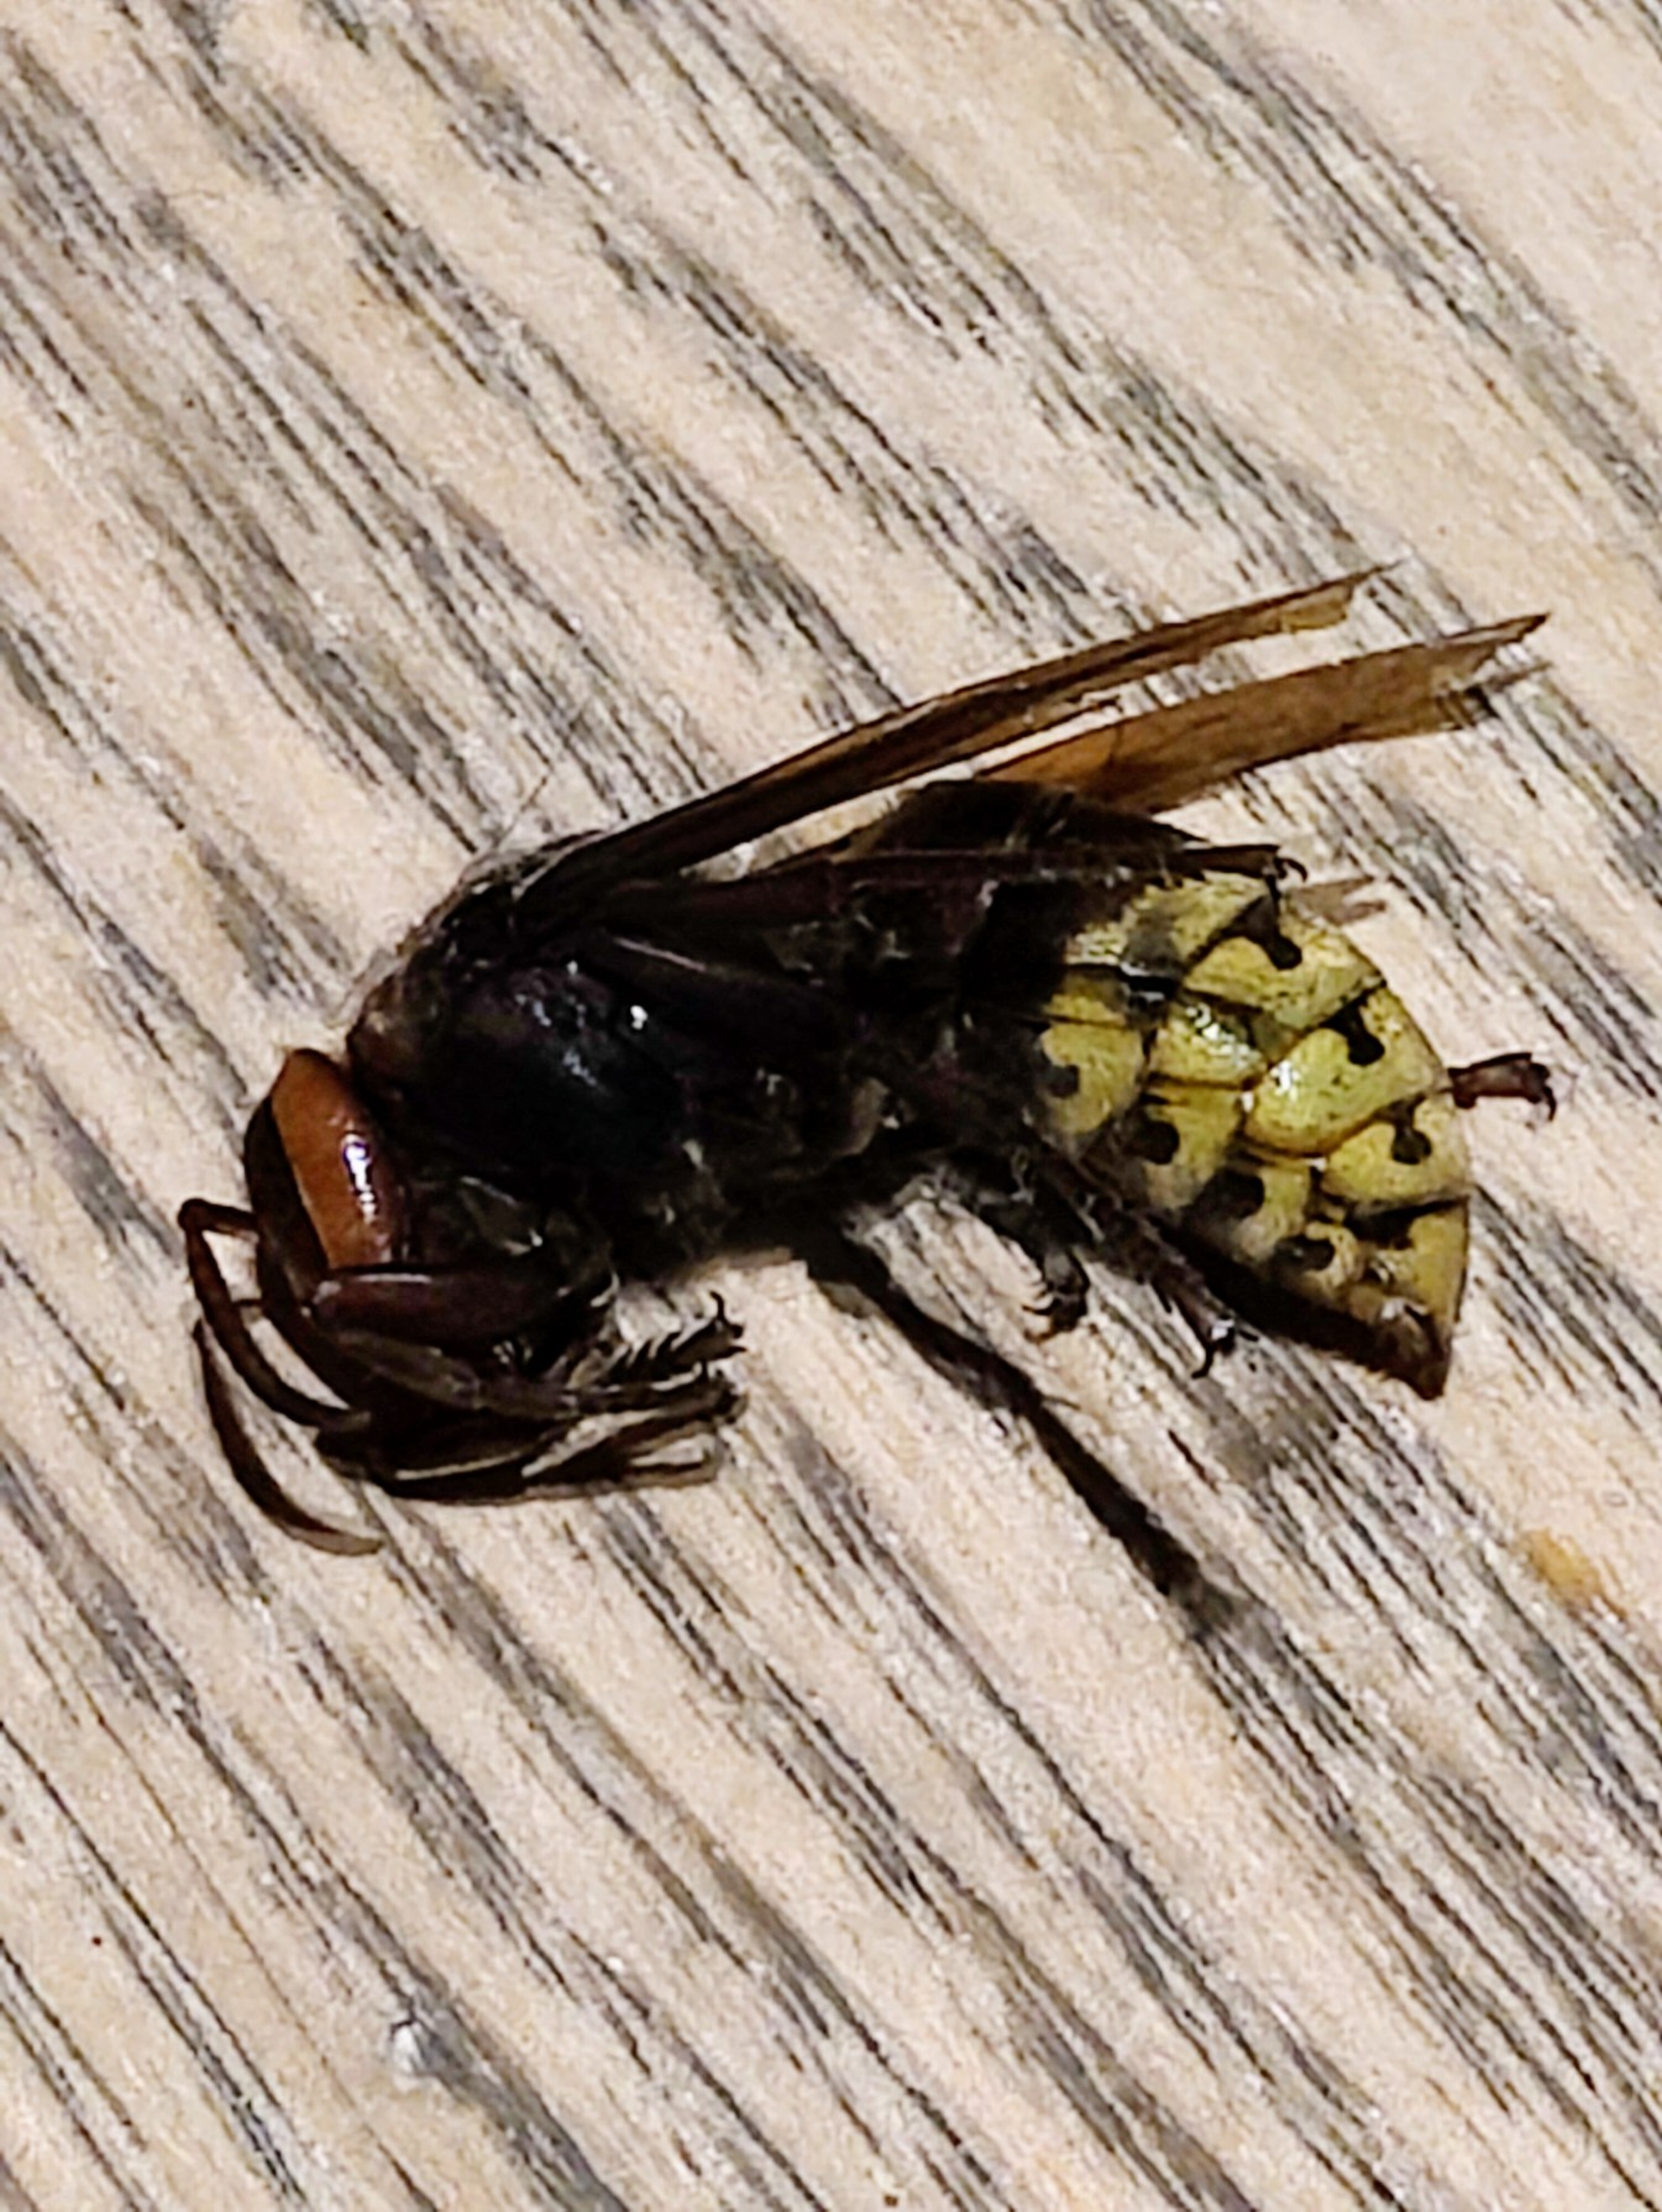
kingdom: Animalia
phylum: Arthropoda
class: Insecta
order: Hymenoptera
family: Vespidae
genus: Vespa
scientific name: Vespa crabro
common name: Stor gedehams
